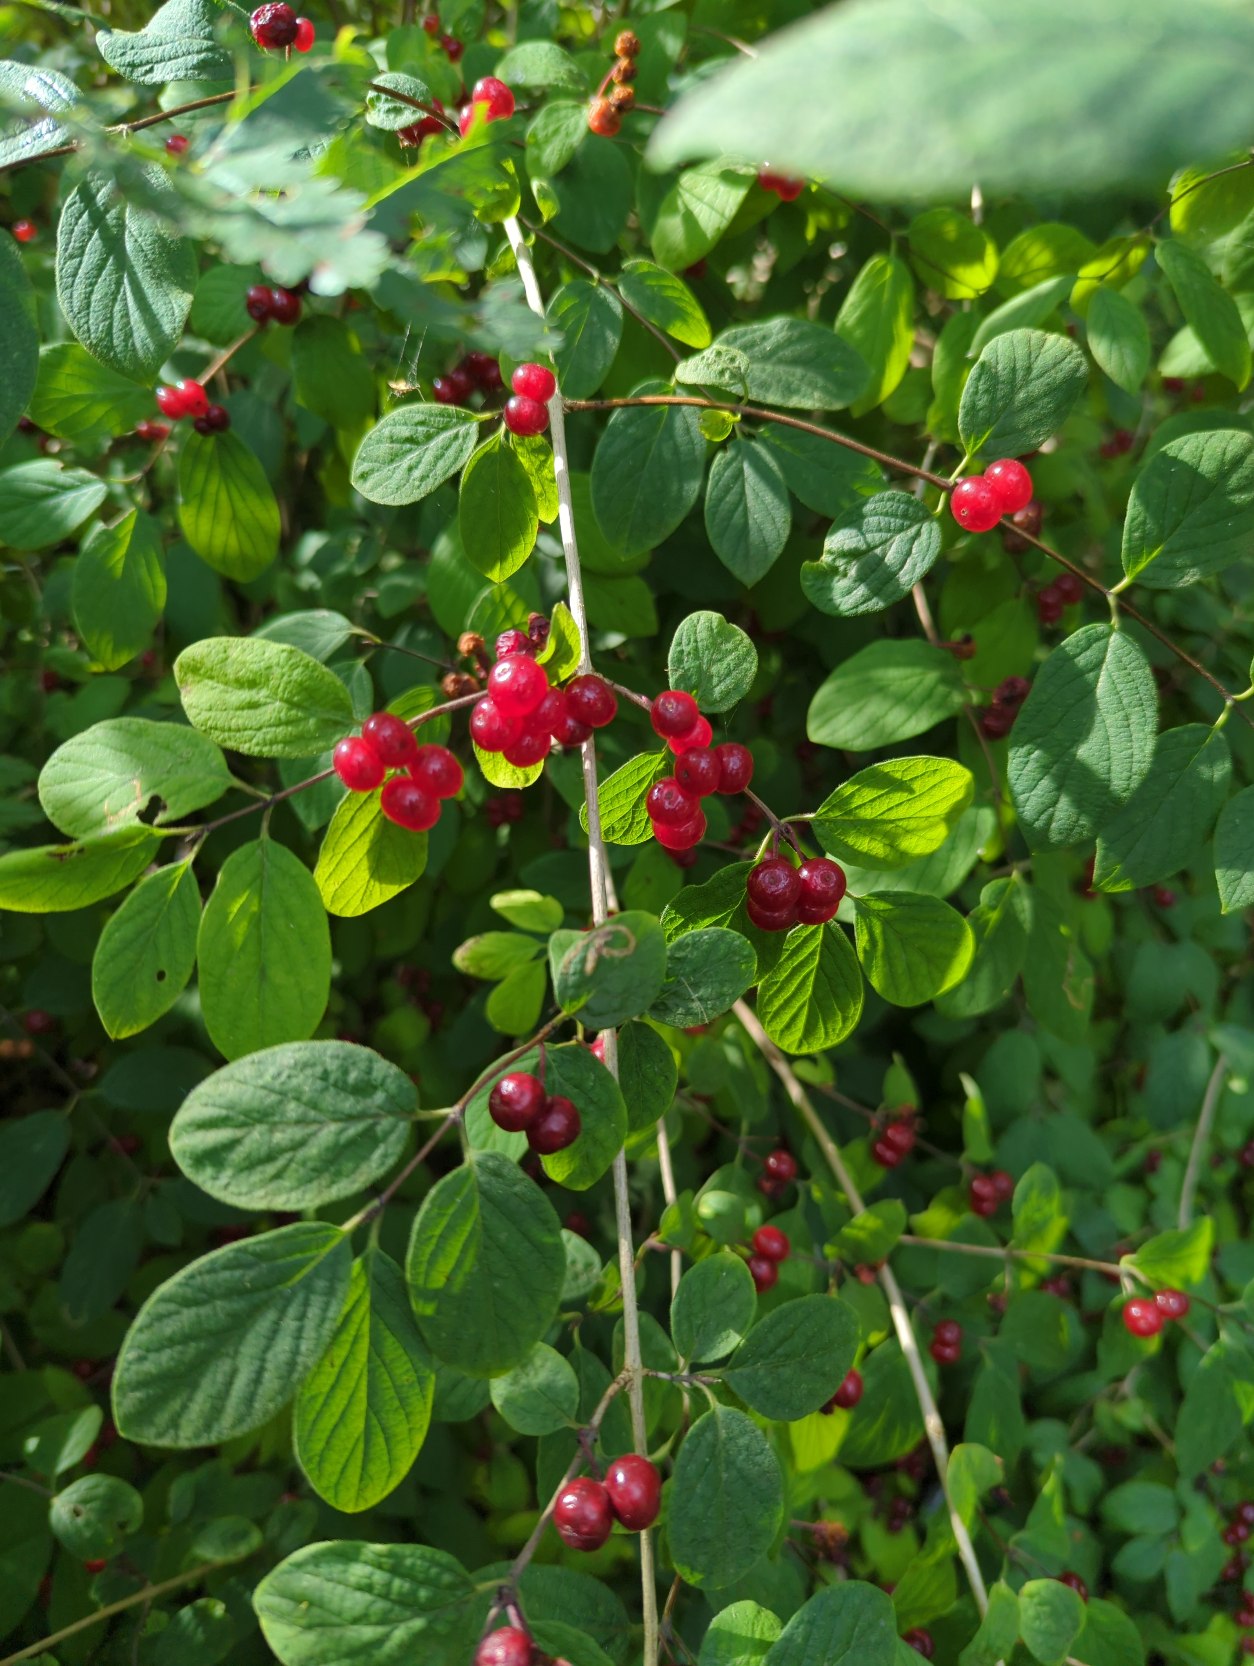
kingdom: Plantae
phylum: Tracheophyta
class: Magnoliopsida
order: Dipsacales
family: Caprifoliaceae
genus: Lonicera
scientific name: Lonicera xylosteum
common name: Dunet gedeblad
